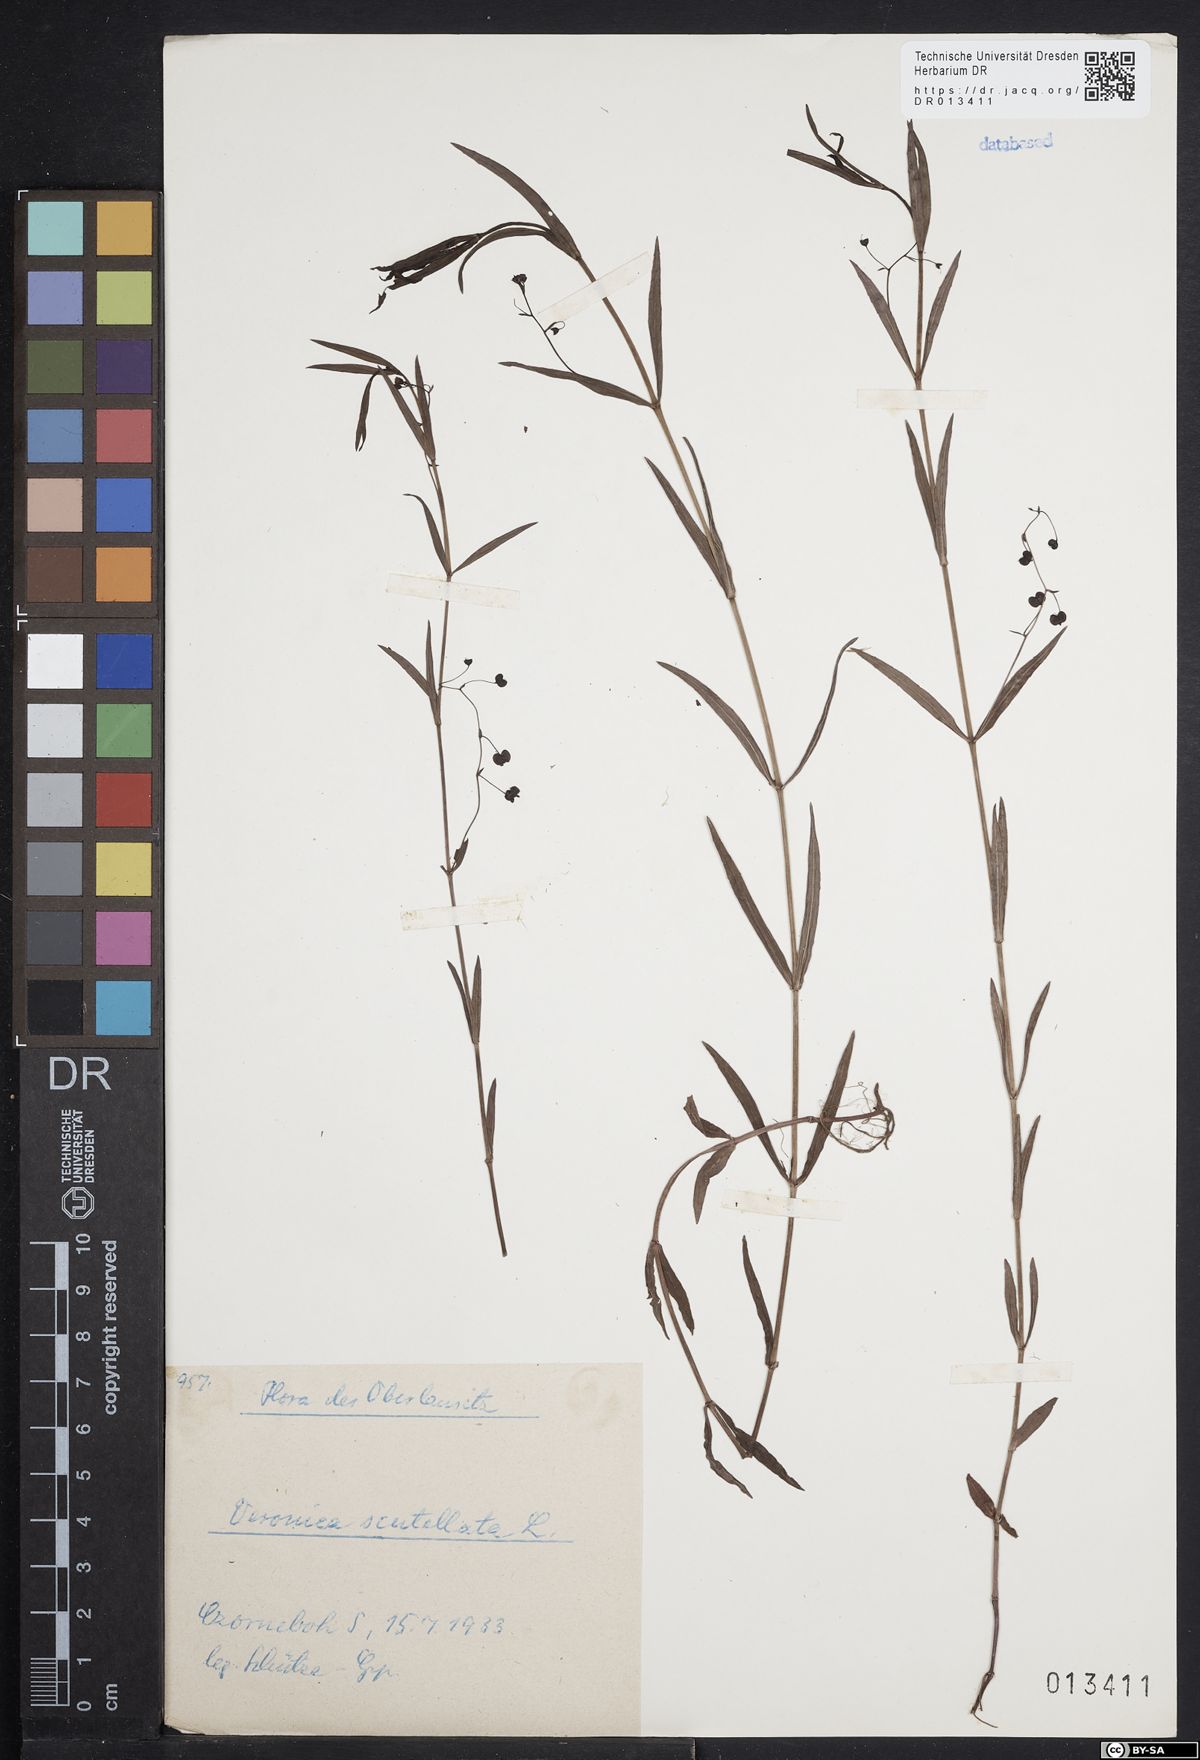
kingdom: Plantae
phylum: Tracheophyta
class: Magnoliopsida
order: Lamiales
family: Plantaginaceae
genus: Veronica
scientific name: Veronica scutellata
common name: Marsh speedwell
